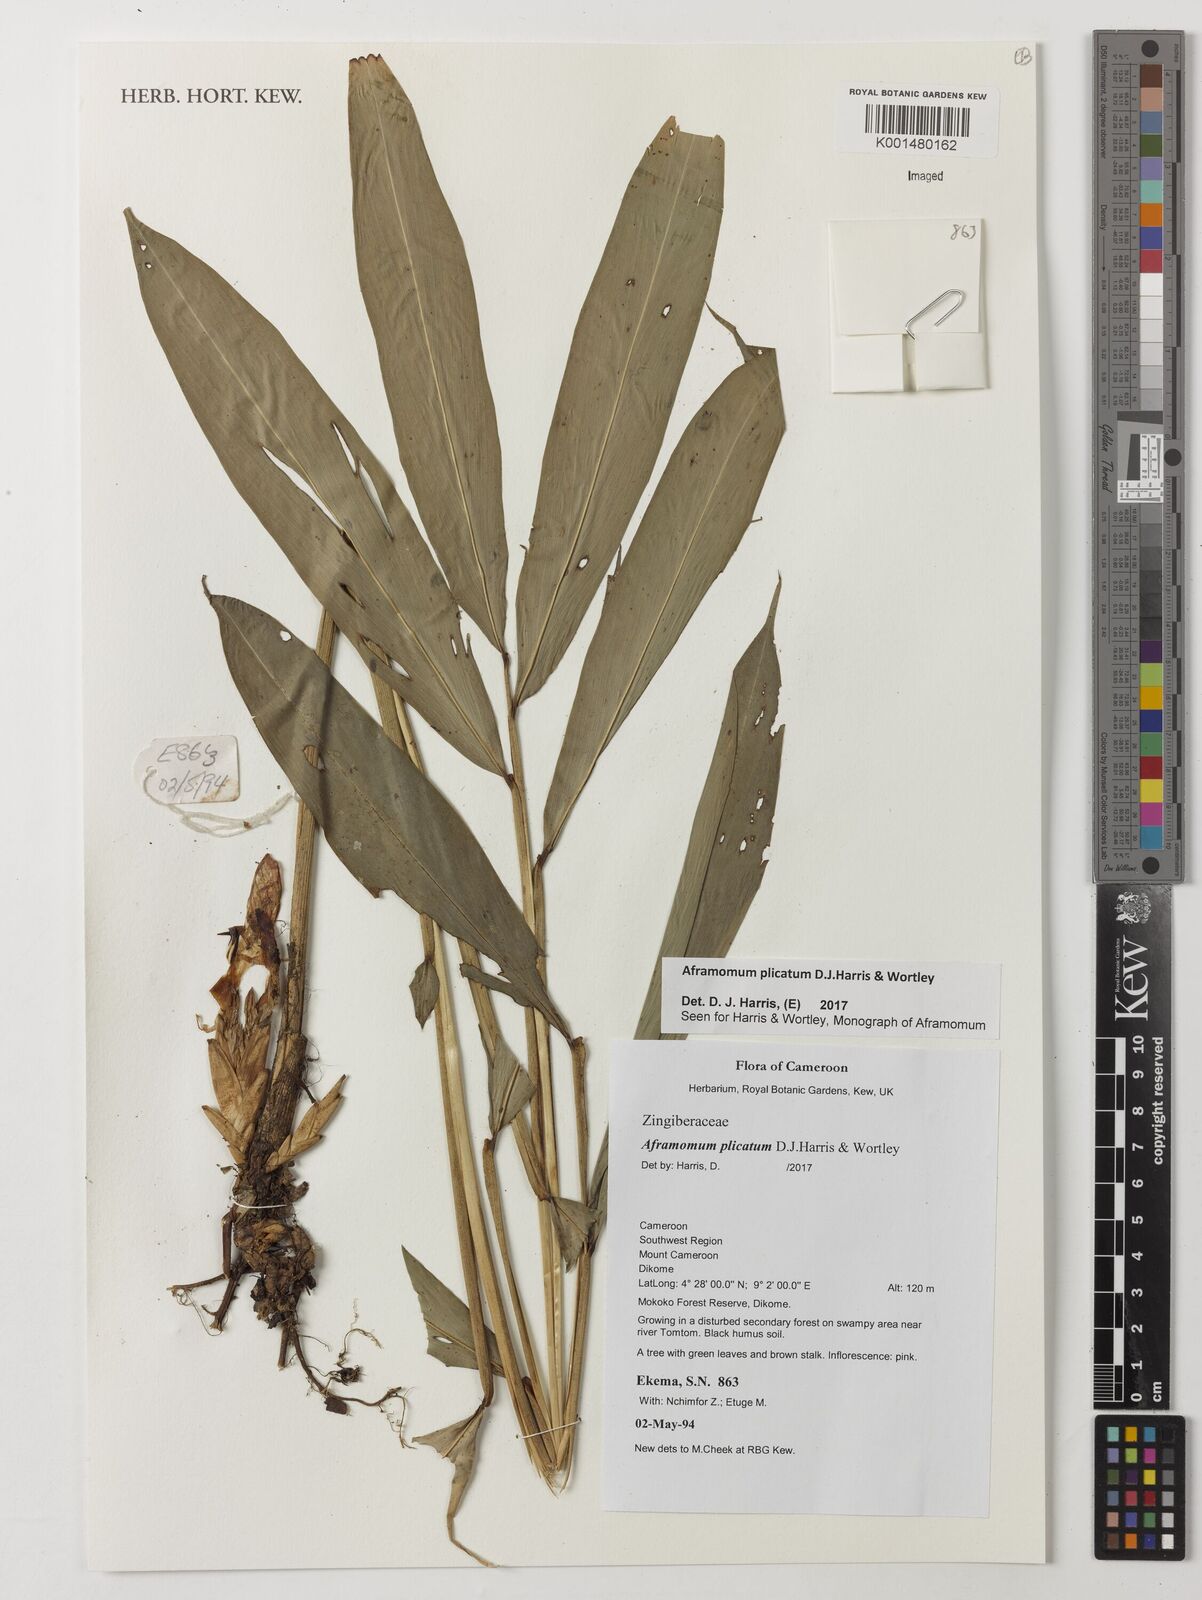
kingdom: Plantae
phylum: Tracheophyta
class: Liliopsida
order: Zingiberales
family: Zingiberaceae
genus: Aframomum
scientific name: Aframomum plicatum
